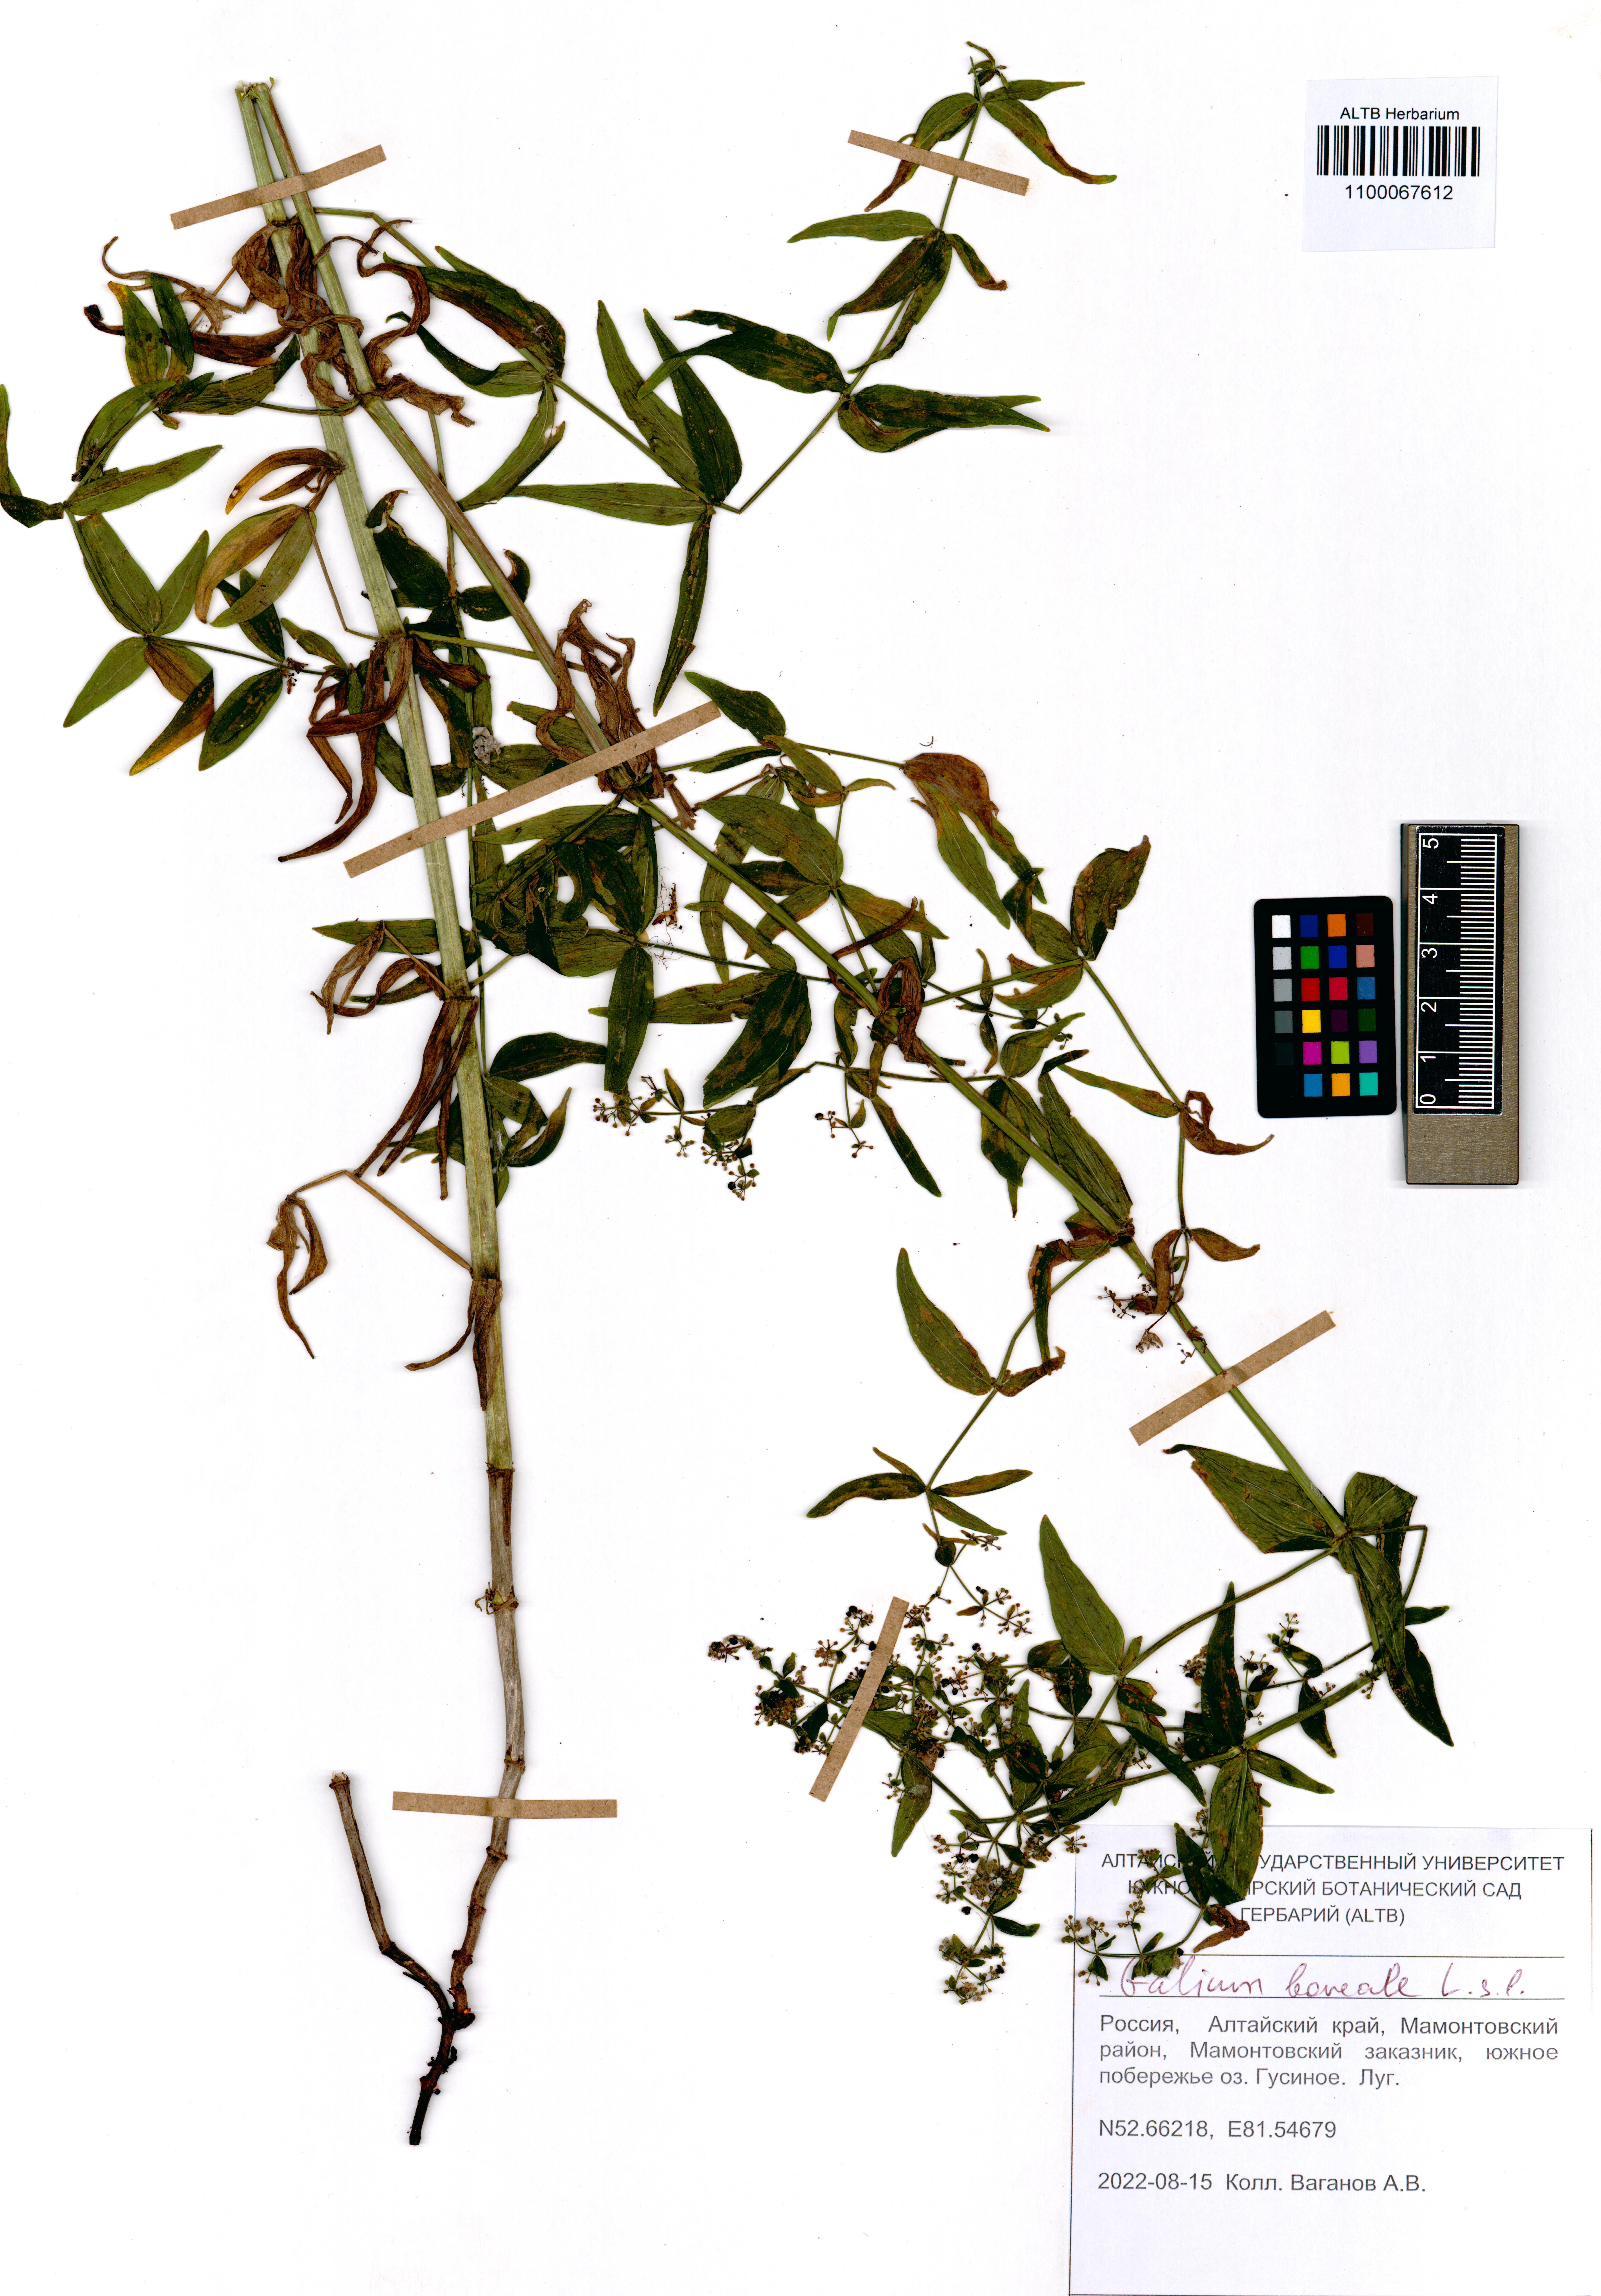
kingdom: Plantae
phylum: Tracheophyta
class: Magnoliopsida
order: Gentianales
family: Rubiaceae
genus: Galium
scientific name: Galium boreale
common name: Northern bedstraw
